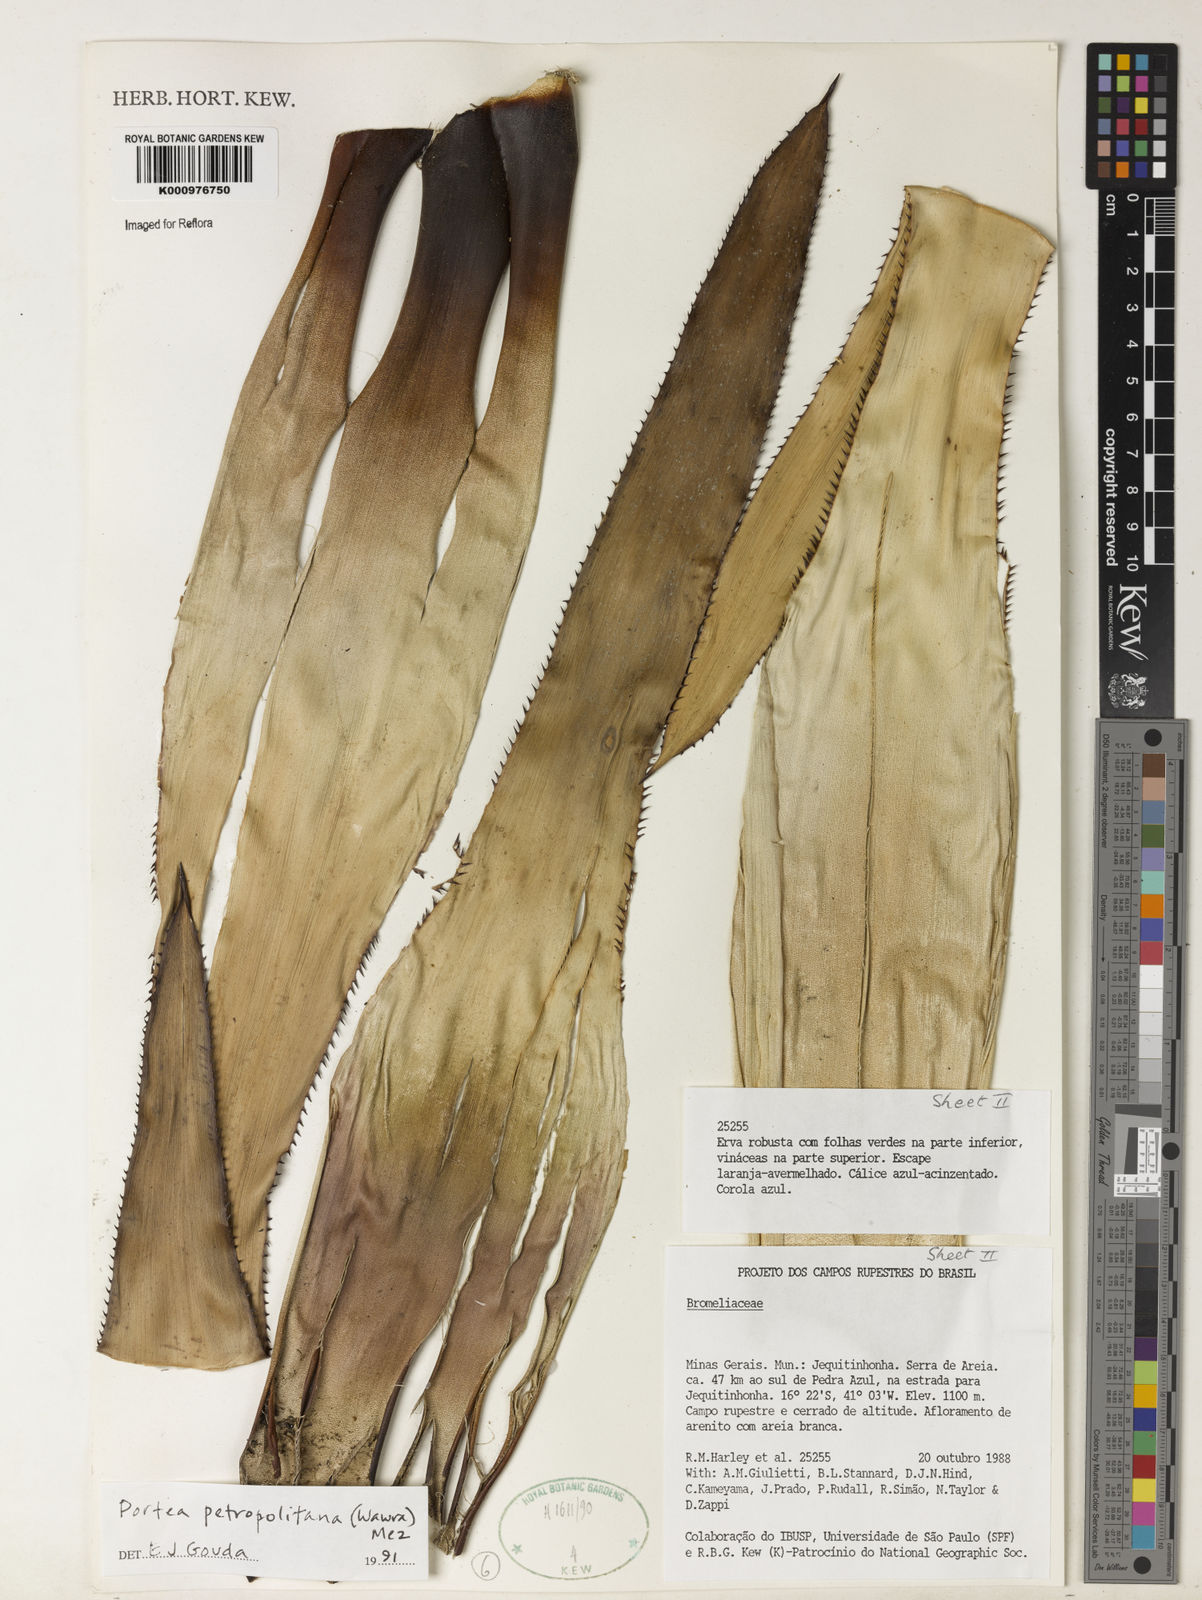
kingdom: Plantae
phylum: Tracheophyta
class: Liliopsida
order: Poales
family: Bromeliaceae
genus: Portea
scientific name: Portea petropolitana
